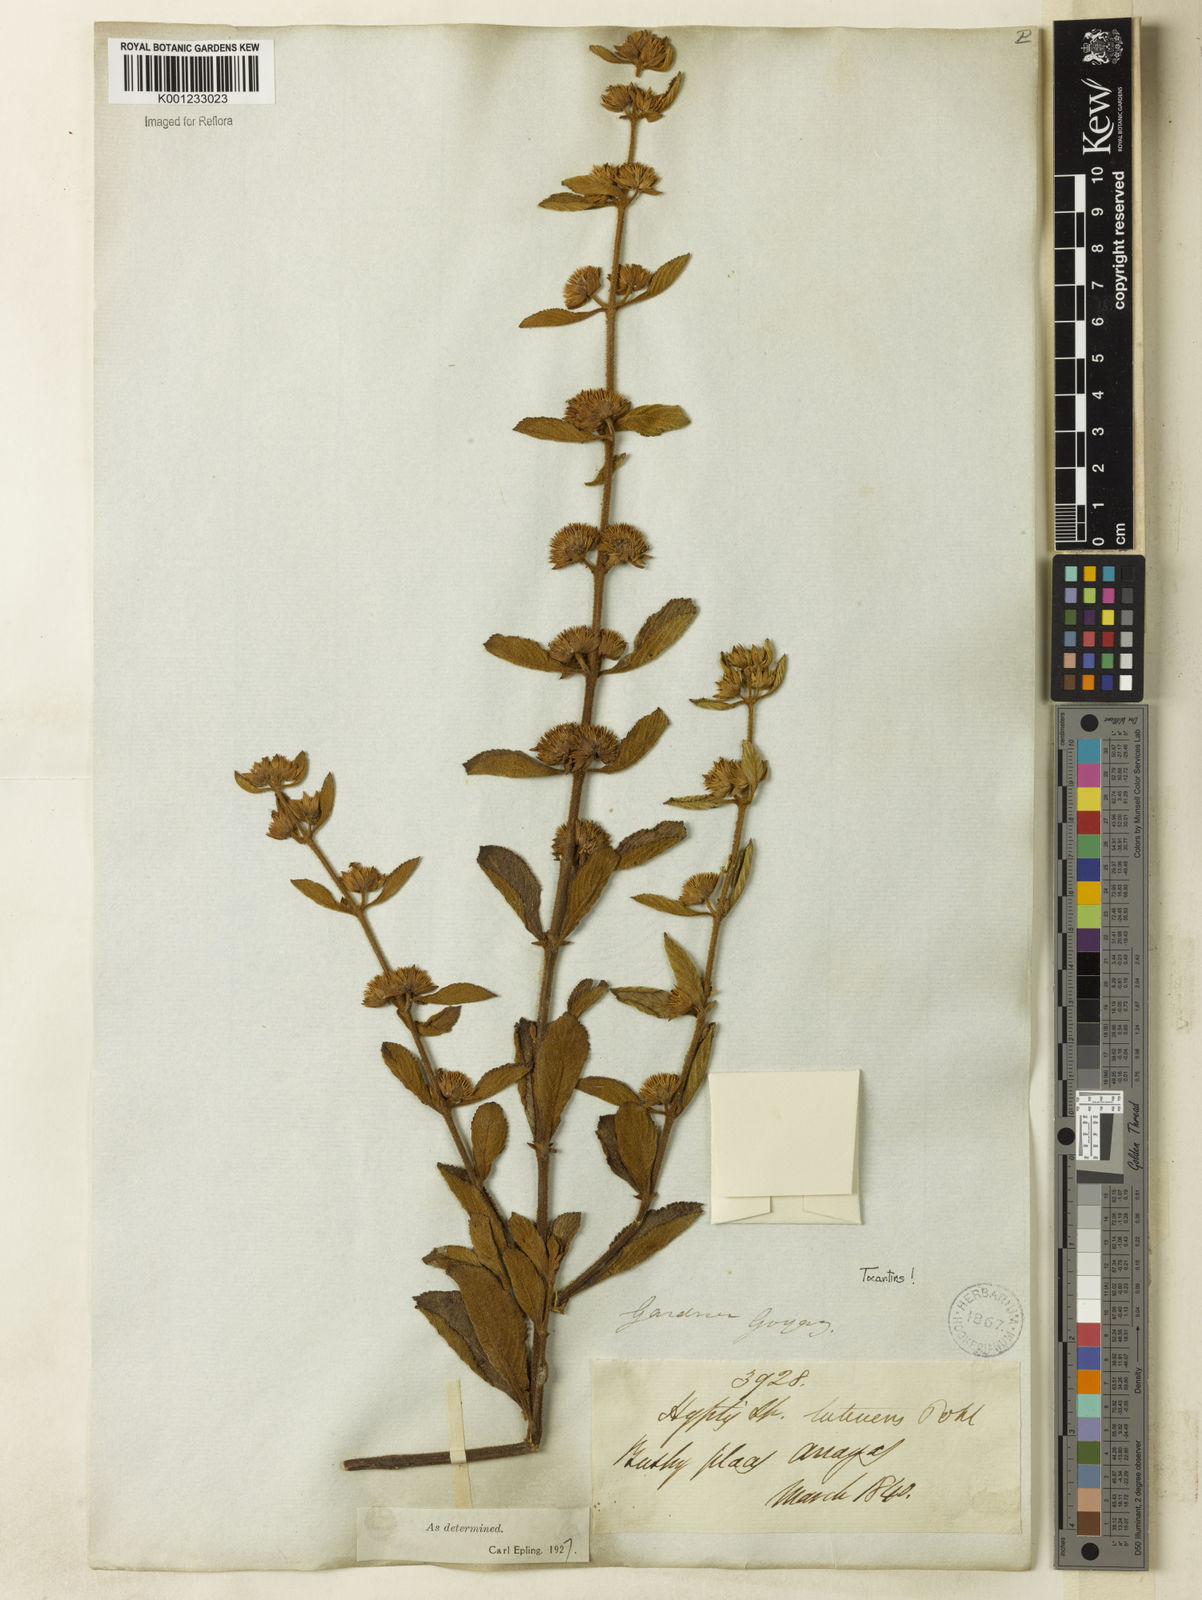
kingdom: Plantae
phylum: Tracheophyta
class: Magnoliopsida
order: Lamiales
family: Lamiaceae
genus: Hyptis
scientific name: Hyptis lutescens
